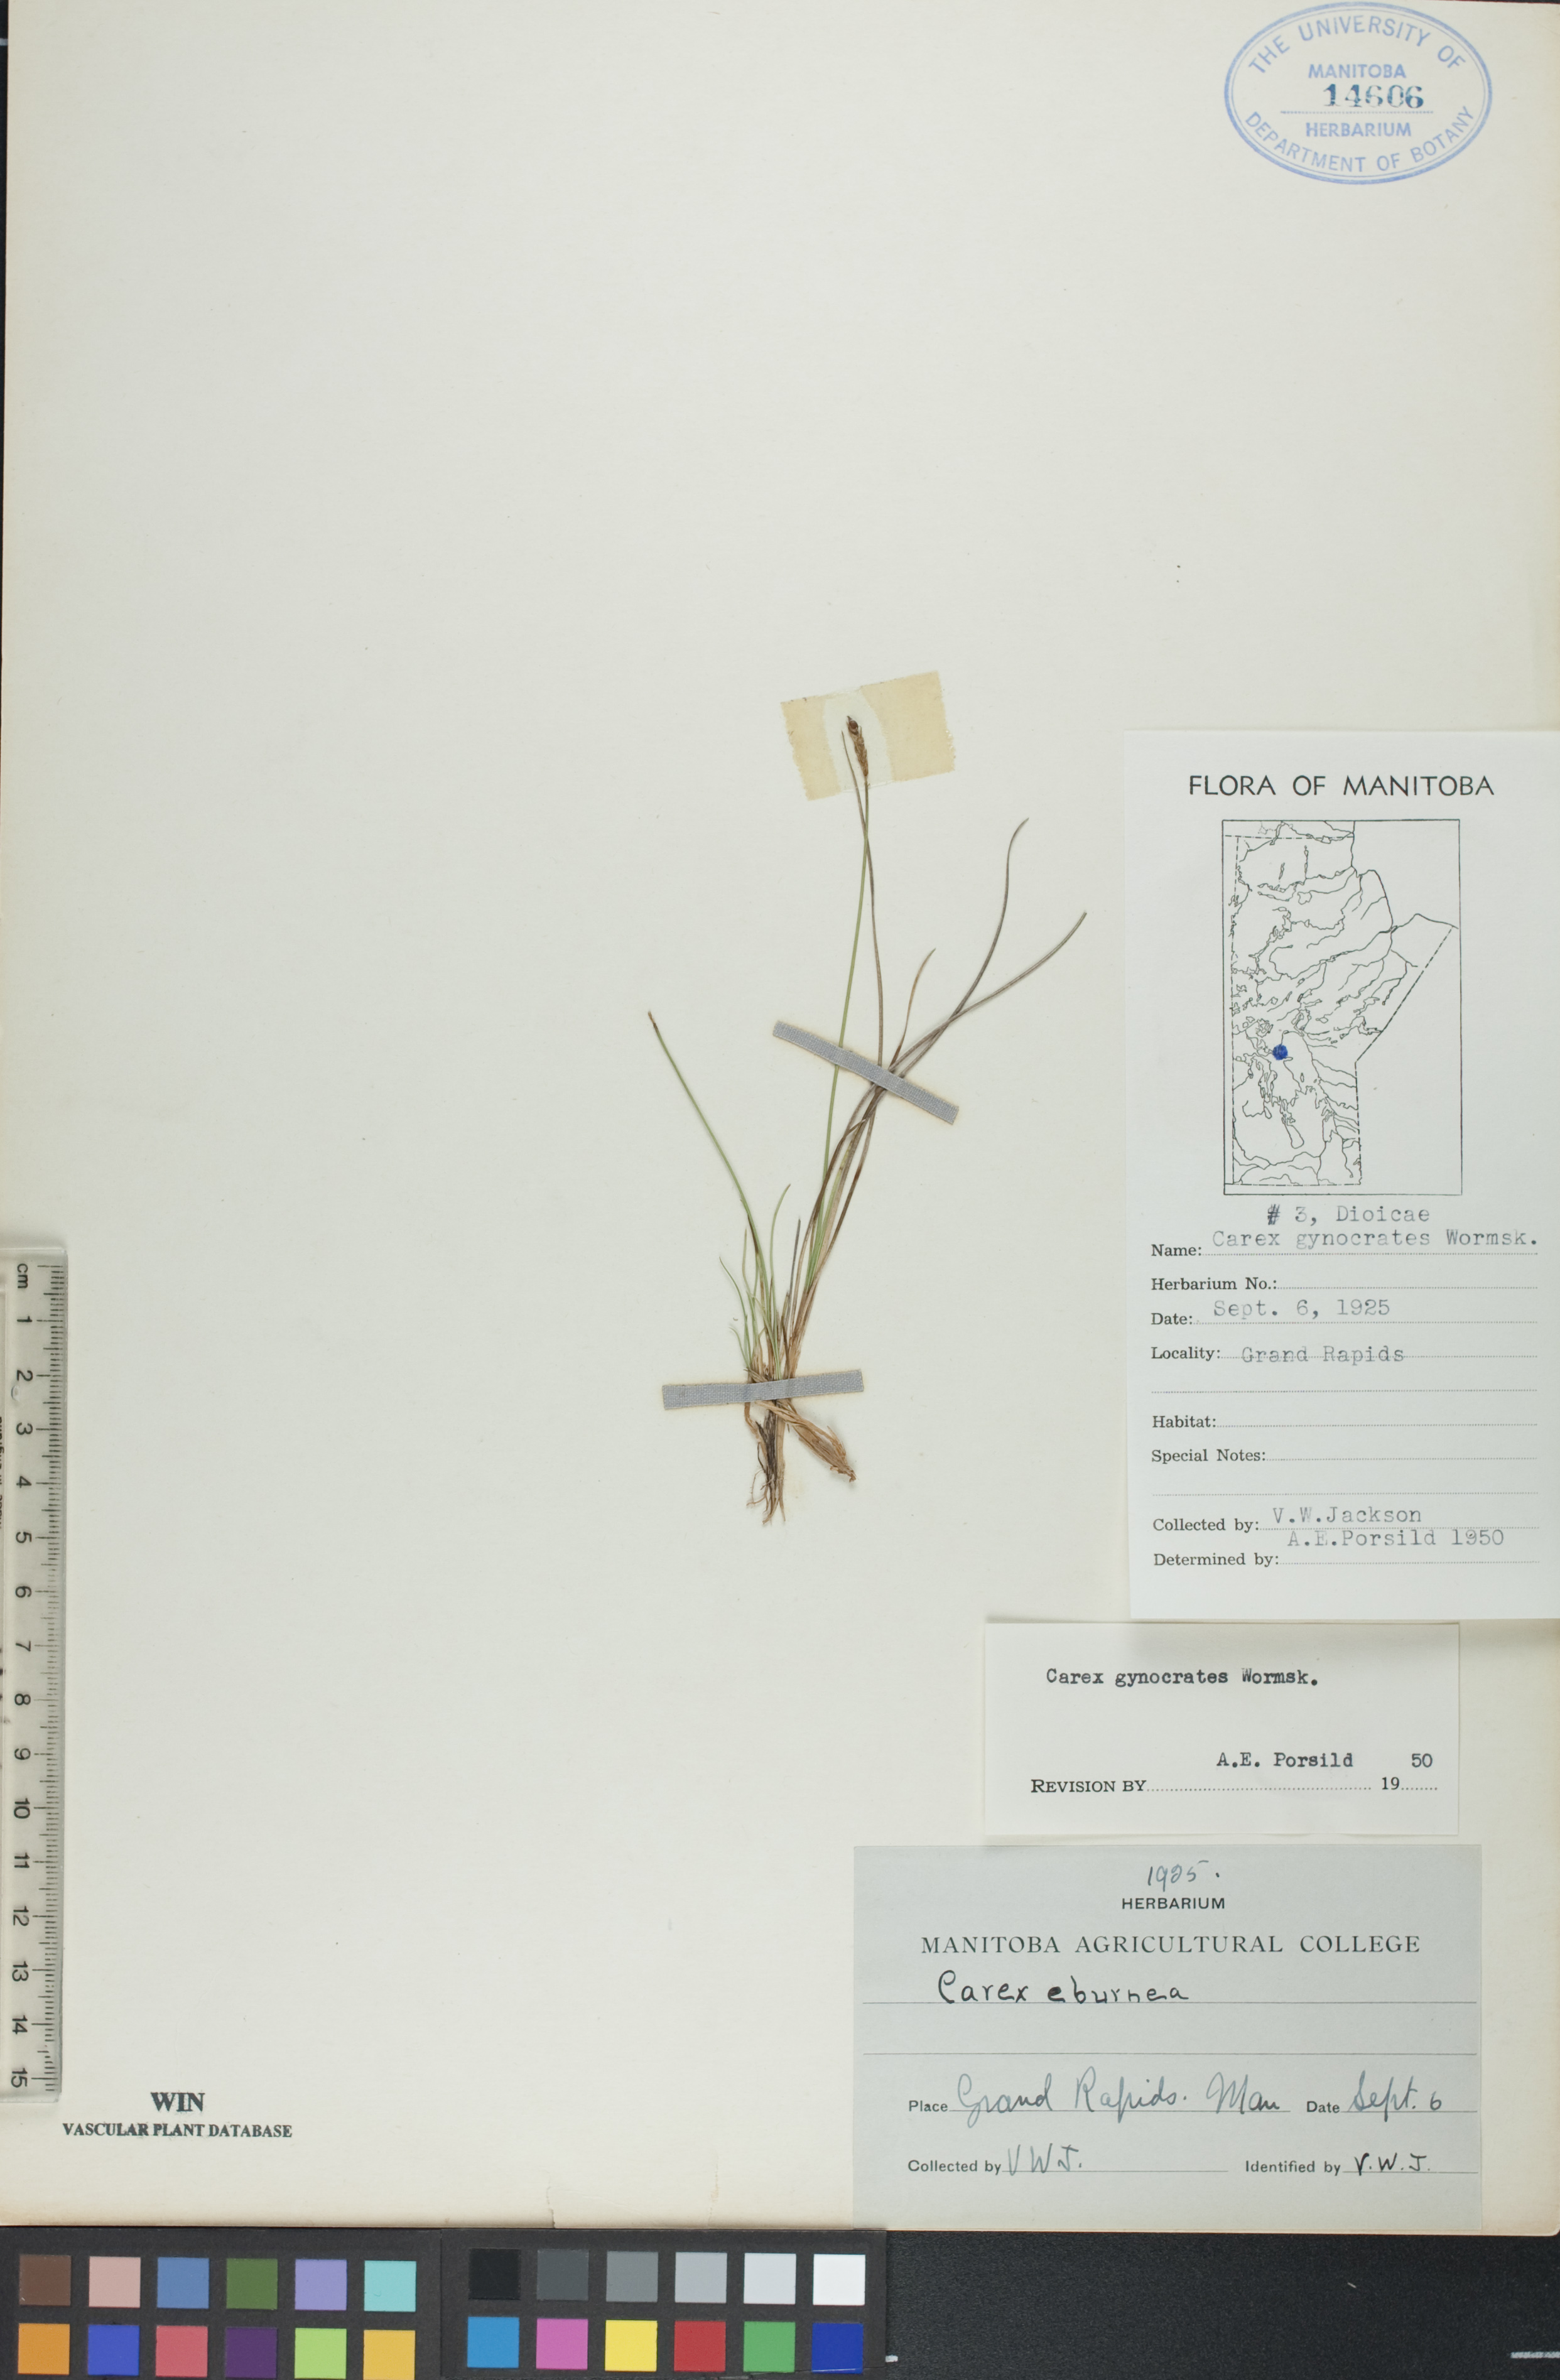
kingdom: Plantae
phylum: Tracheophyta
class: Liliopsida
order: Poales
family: Cyperaceae
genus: Carex
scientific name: Carex nardina
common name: Nard sedge
